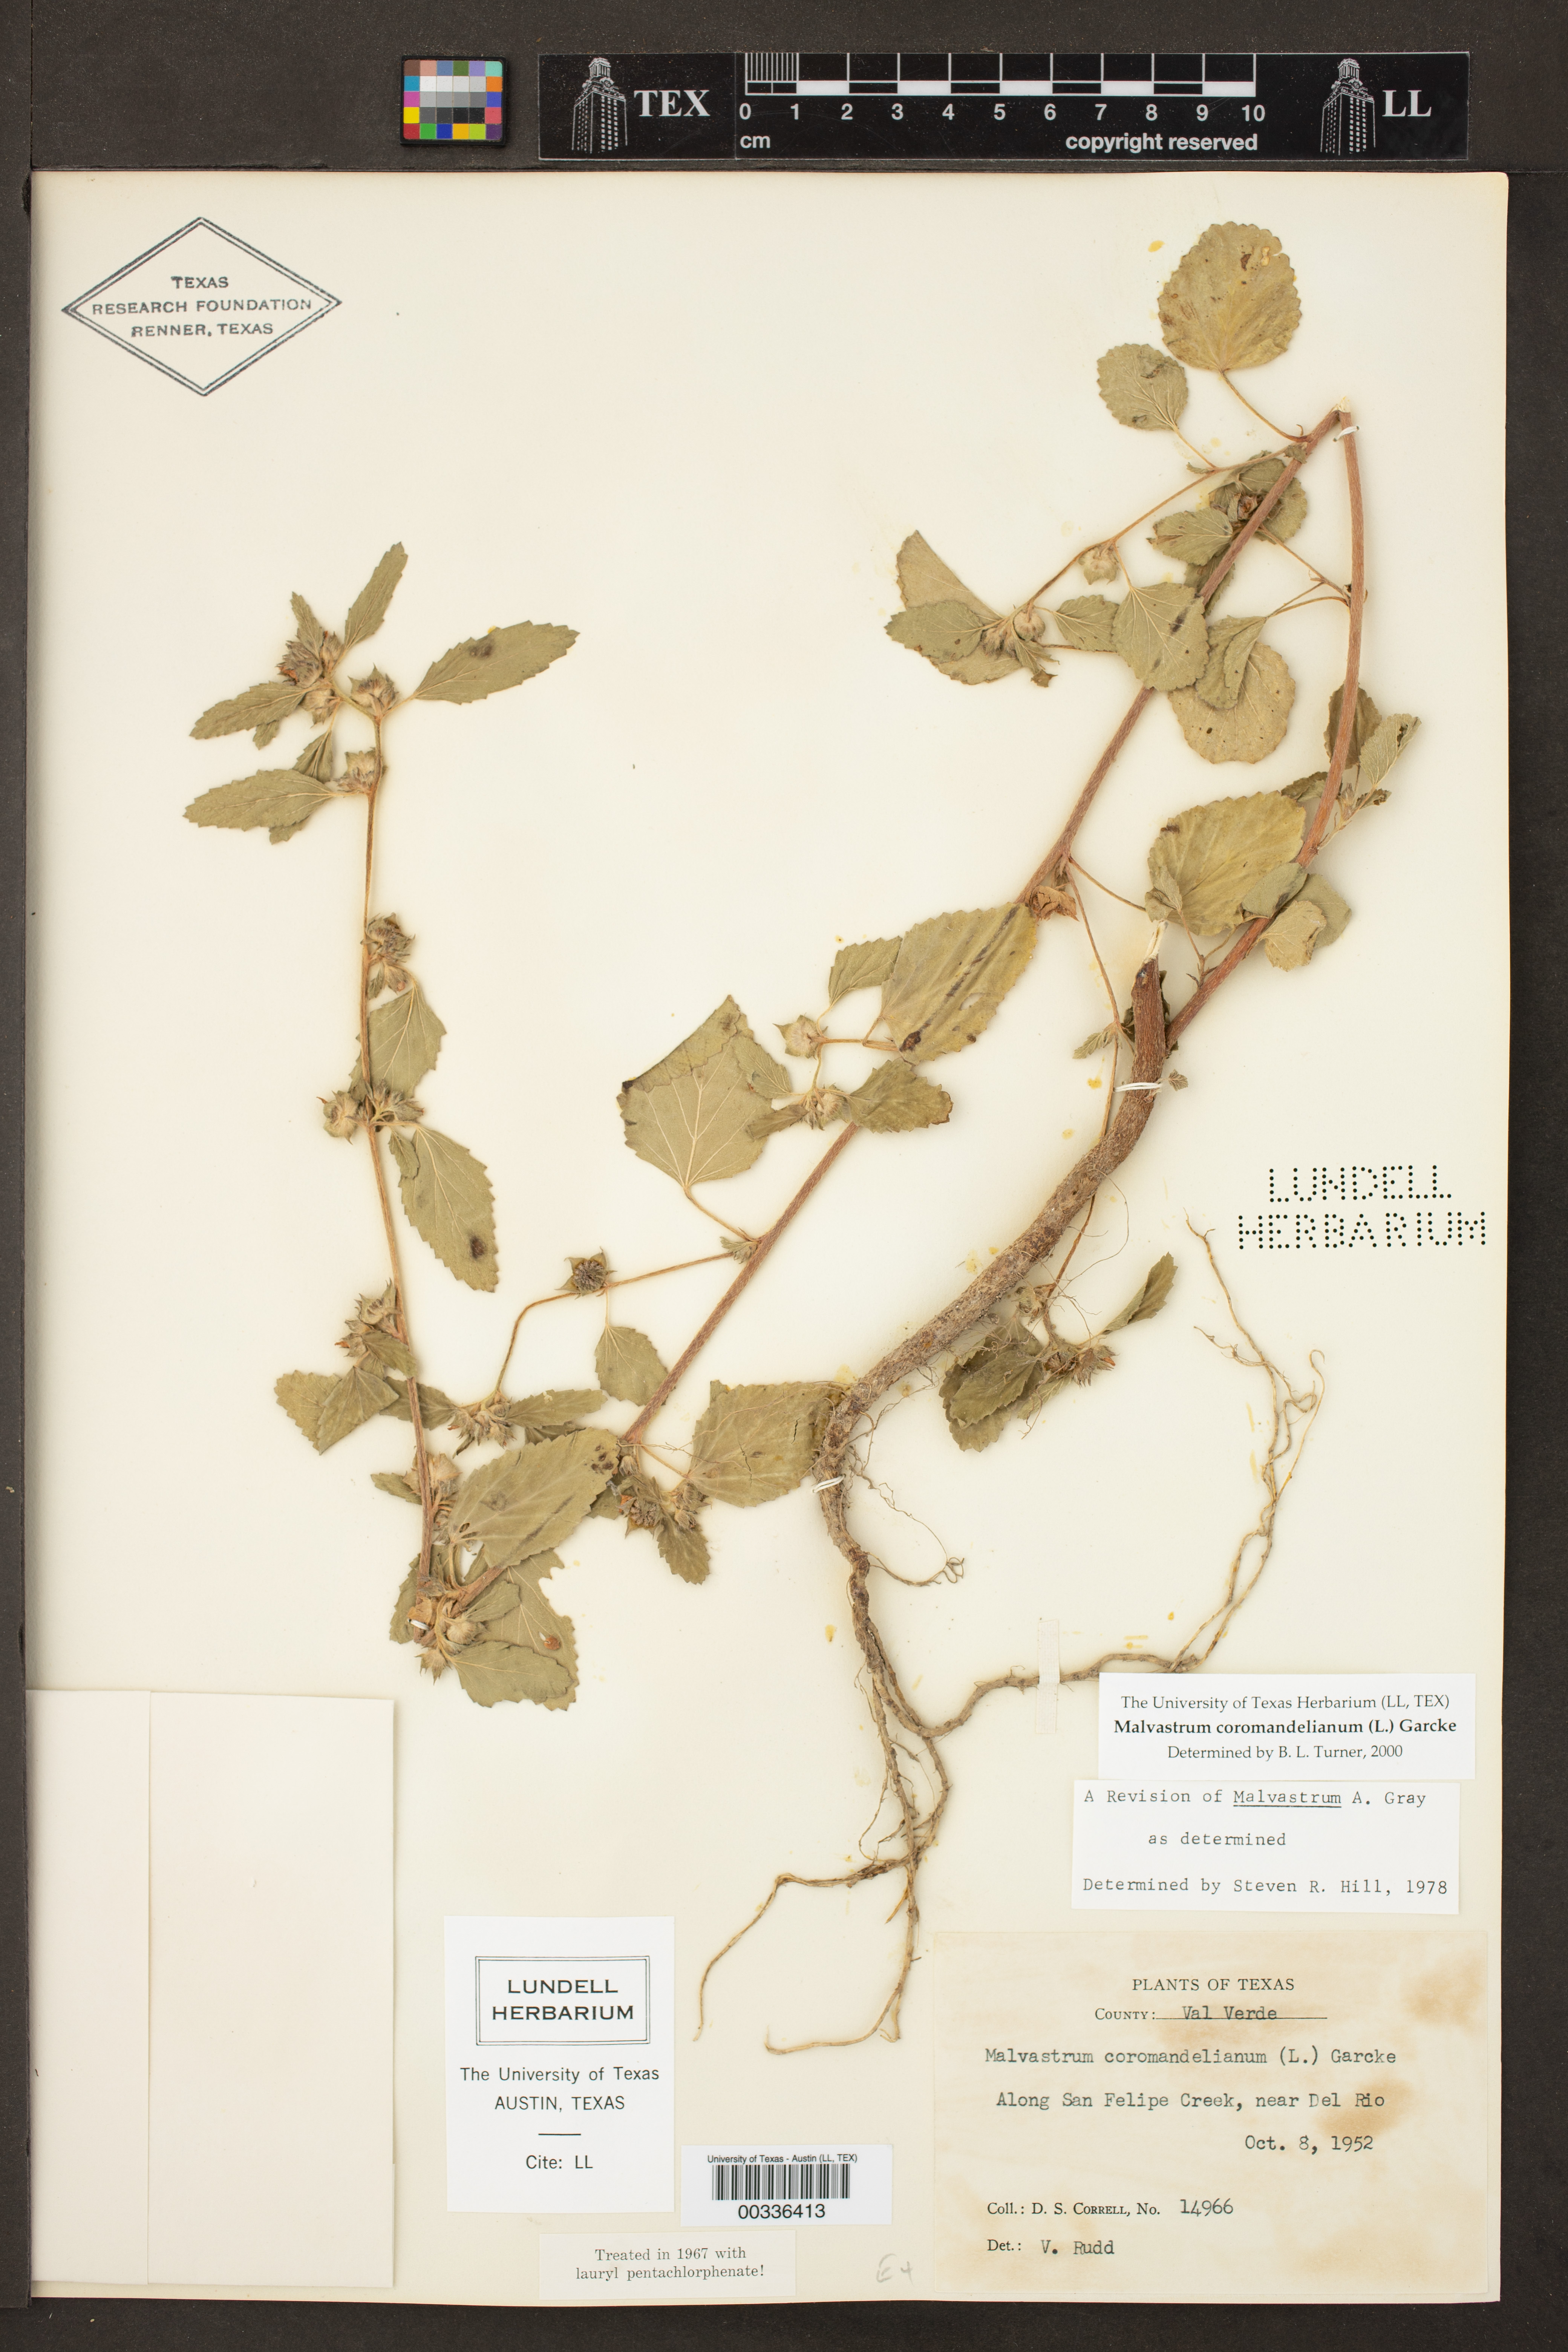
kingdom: Plantae
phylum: Tracheophyta
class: Magnoliopsida
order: Malvales
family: Malvaceae
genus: Malvastrum
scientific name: Malvastrum coromandelianum
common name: Threelobe false mallow
